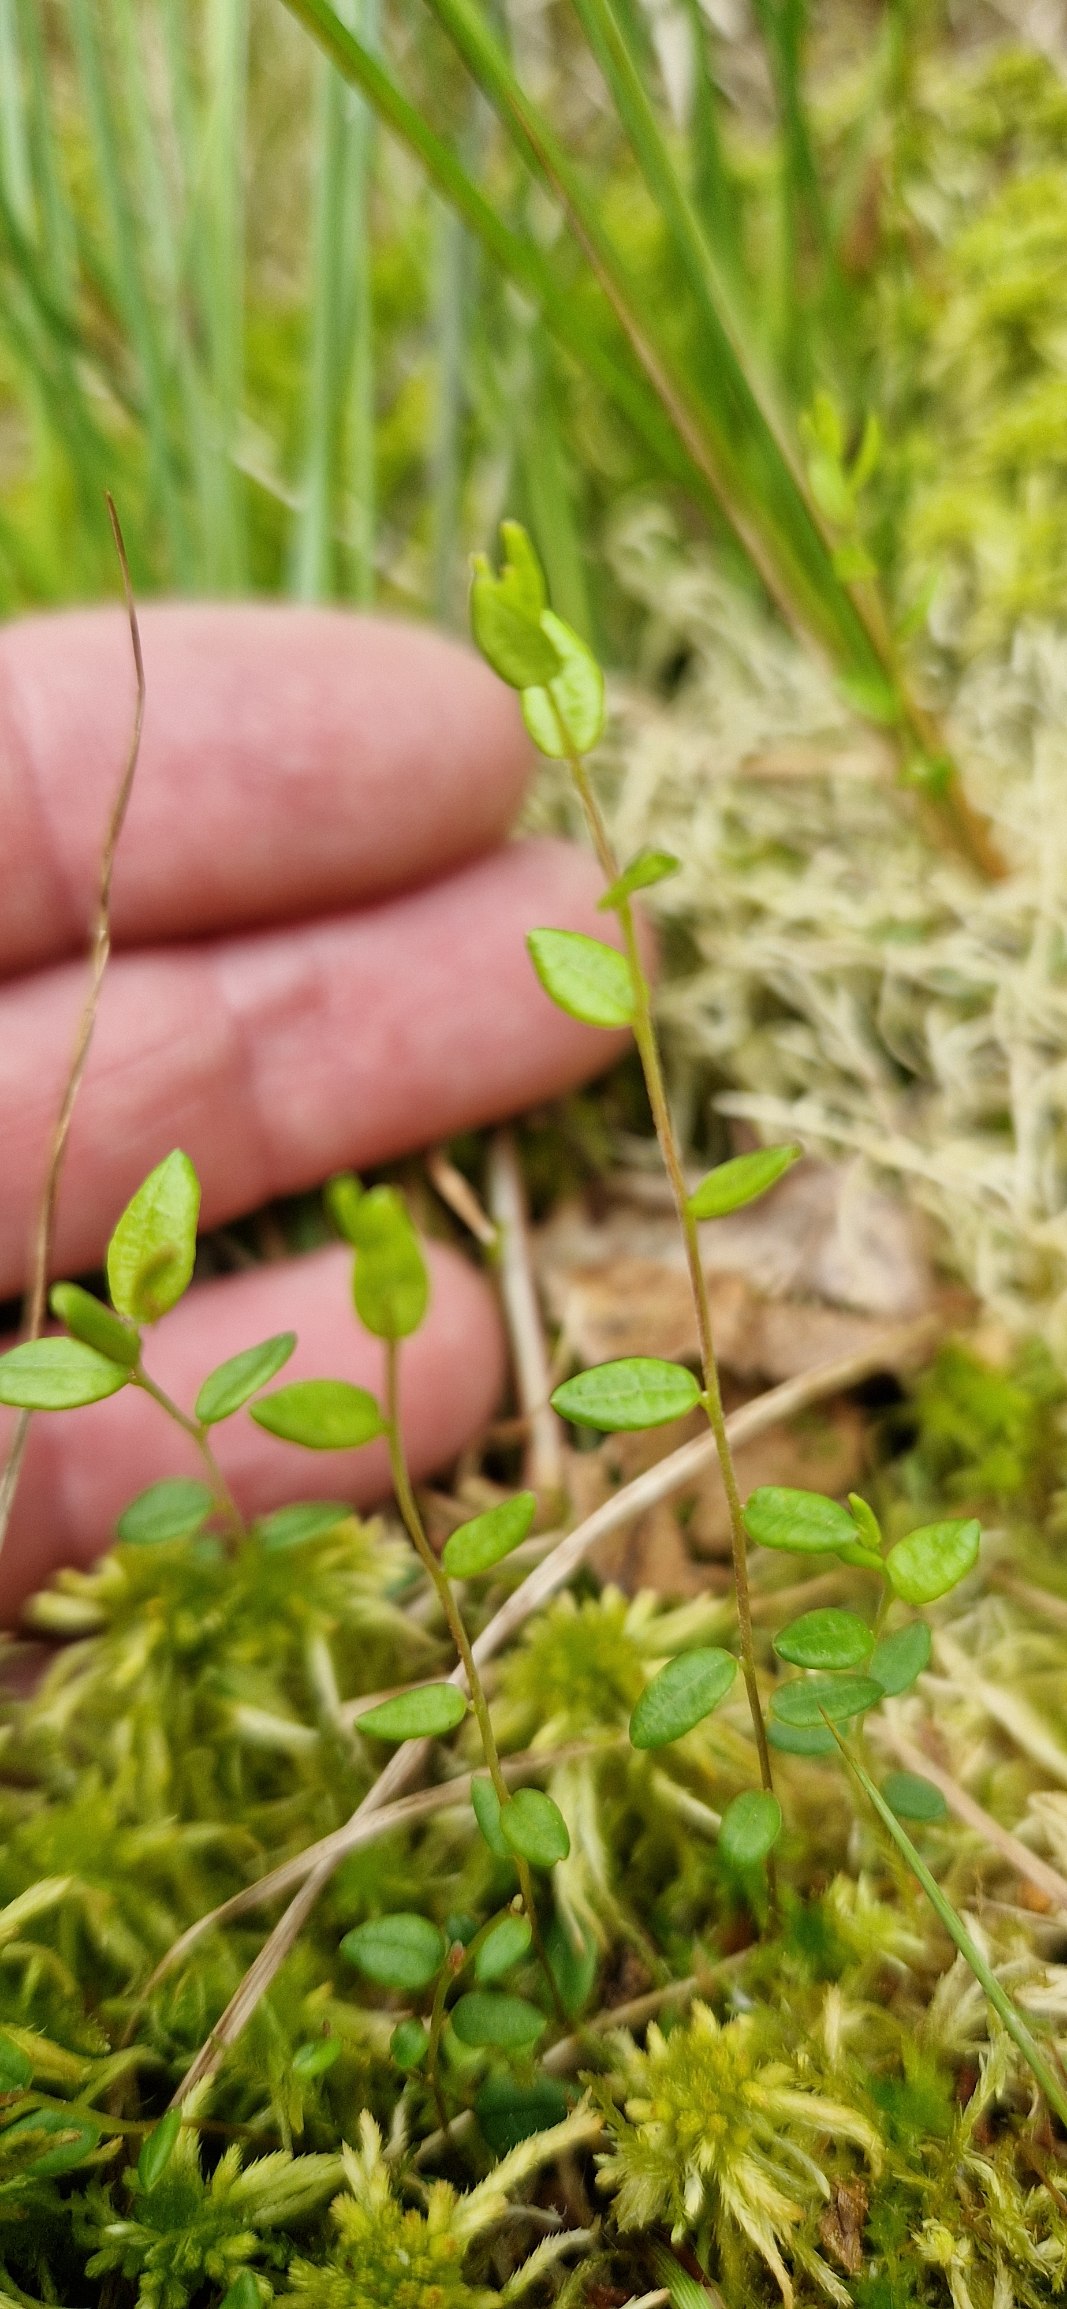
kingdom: Plantae
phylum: Tracheophyta
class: Magnoliopsida
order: Ericales
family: Ericaceae
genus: Vaccinium
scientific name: Vaccinium oxycoccos
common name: Tranebær
